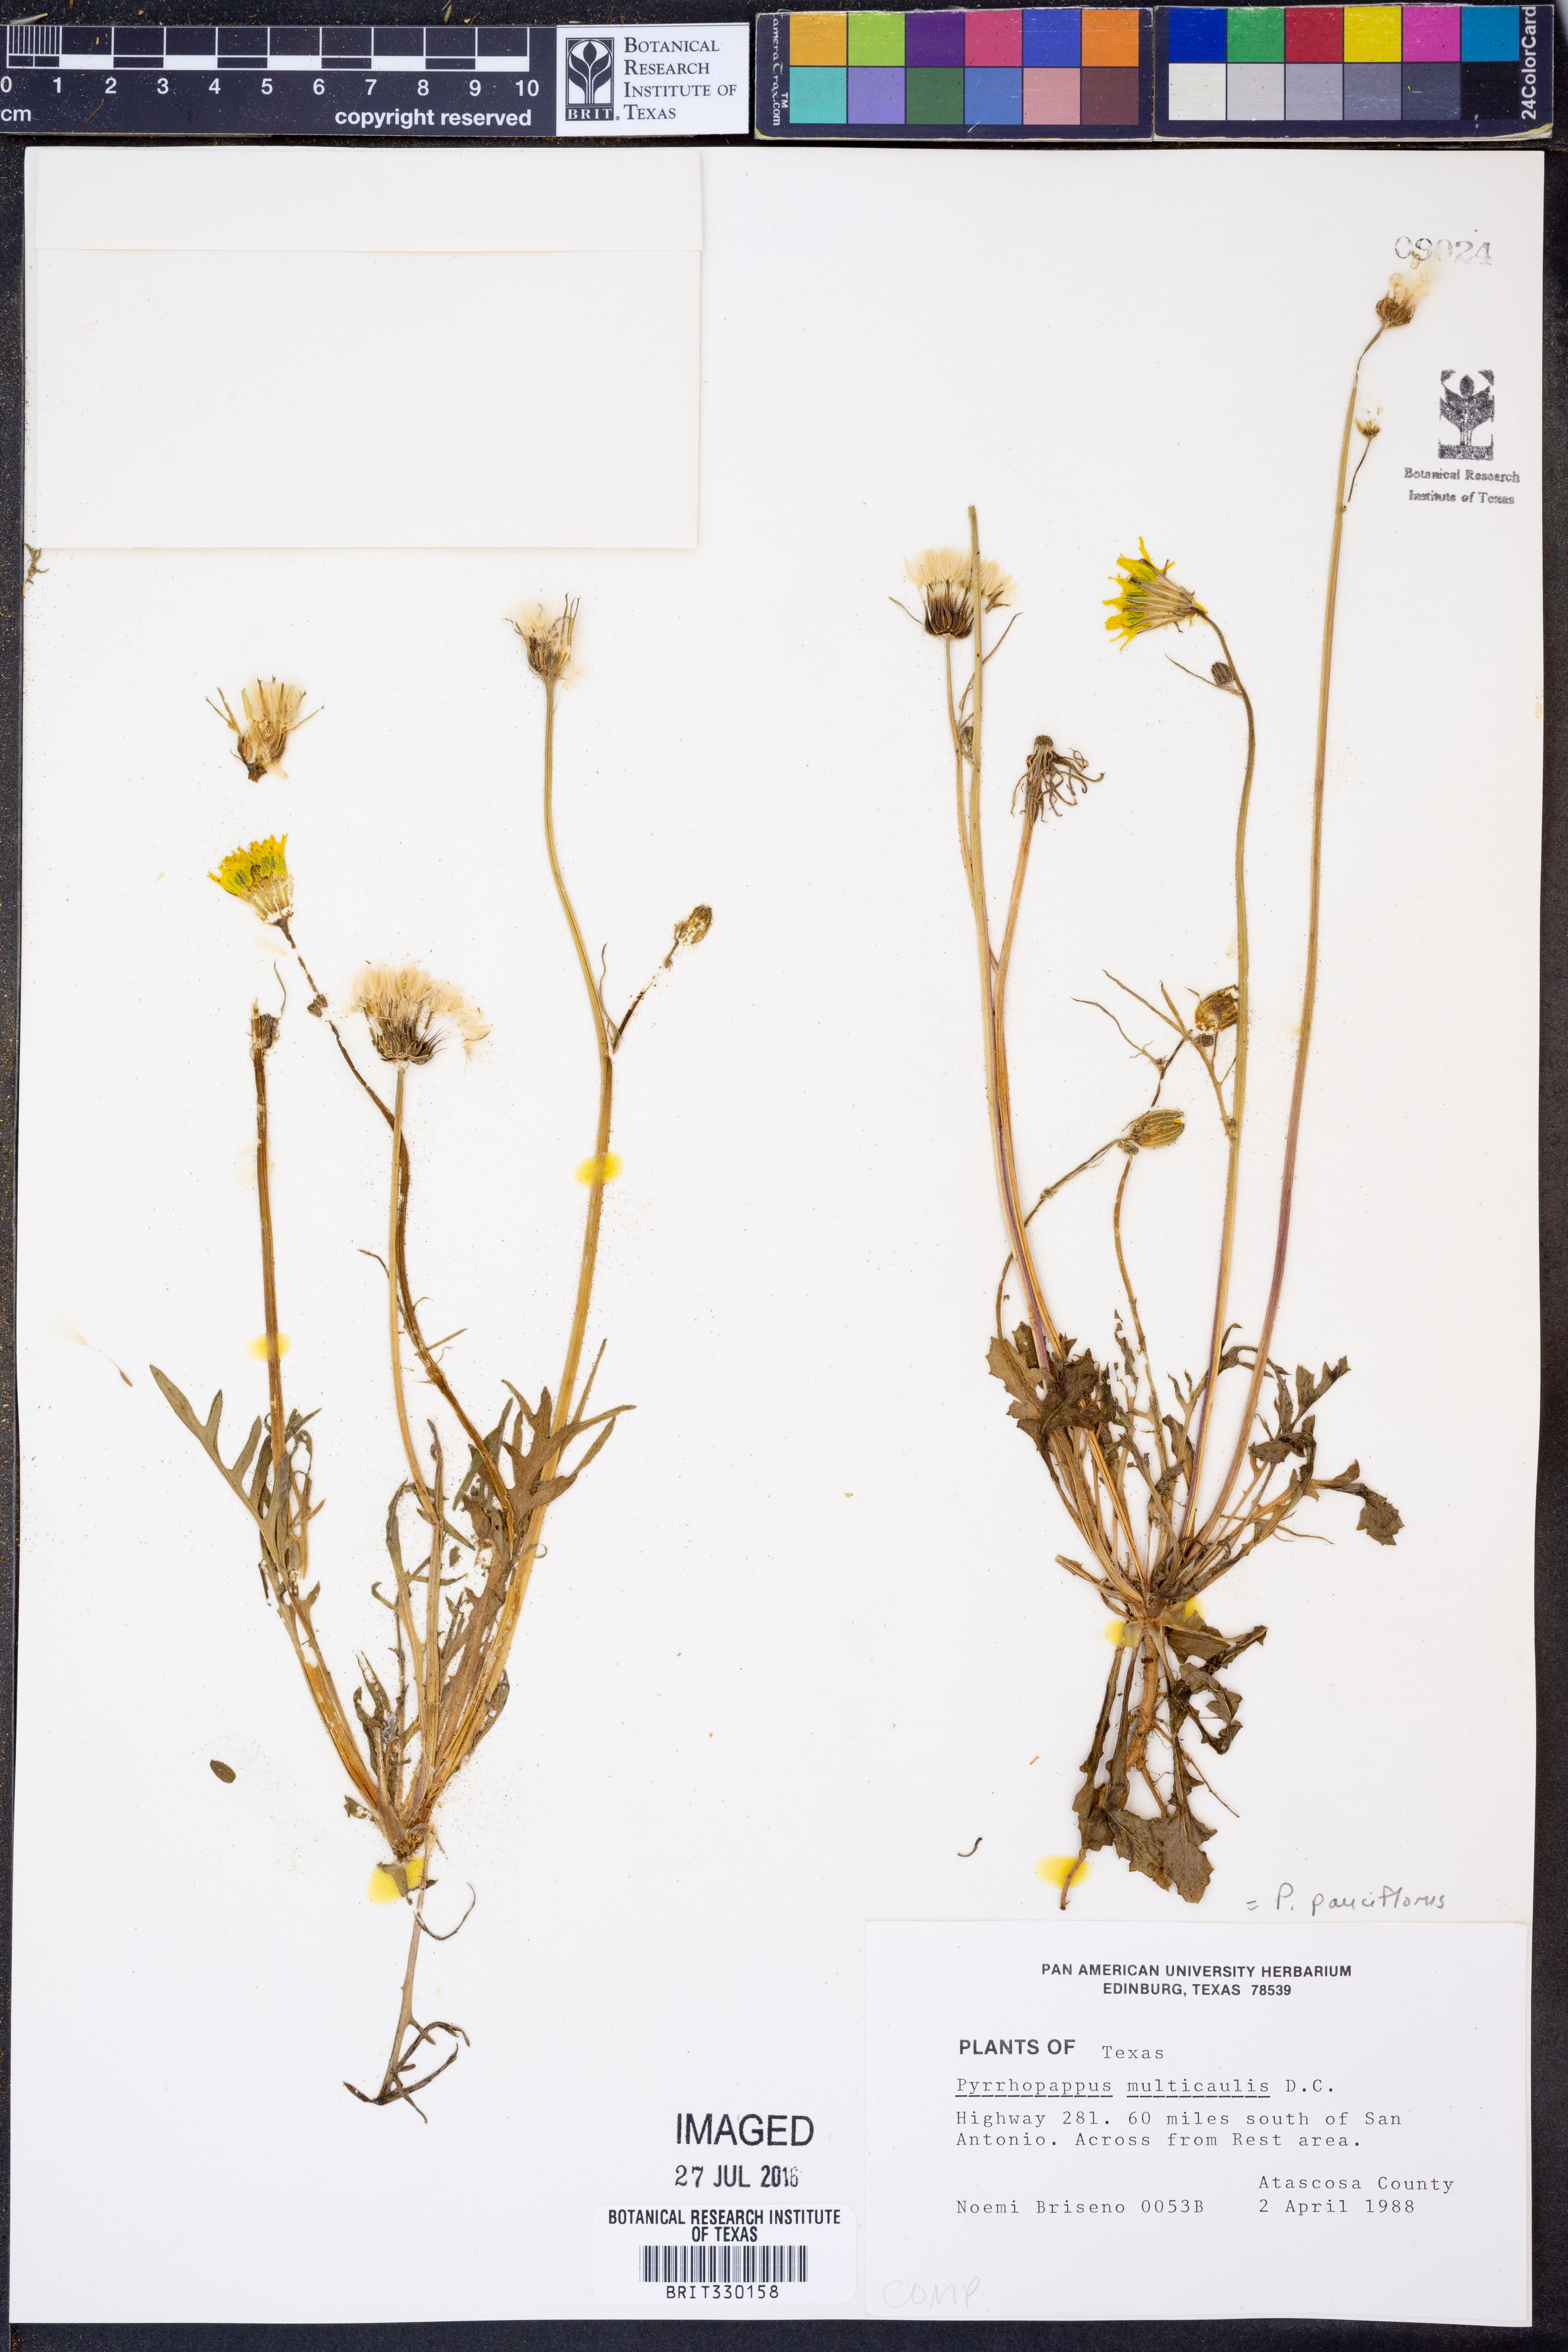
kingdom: Plantae
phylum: Tracheophyta
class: Magnoliopsida
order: Asterales
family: Asteraceae
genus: Pyrrhopappus
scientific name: Pyrrhopappus pauciflorus
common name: Texas false dandelion
